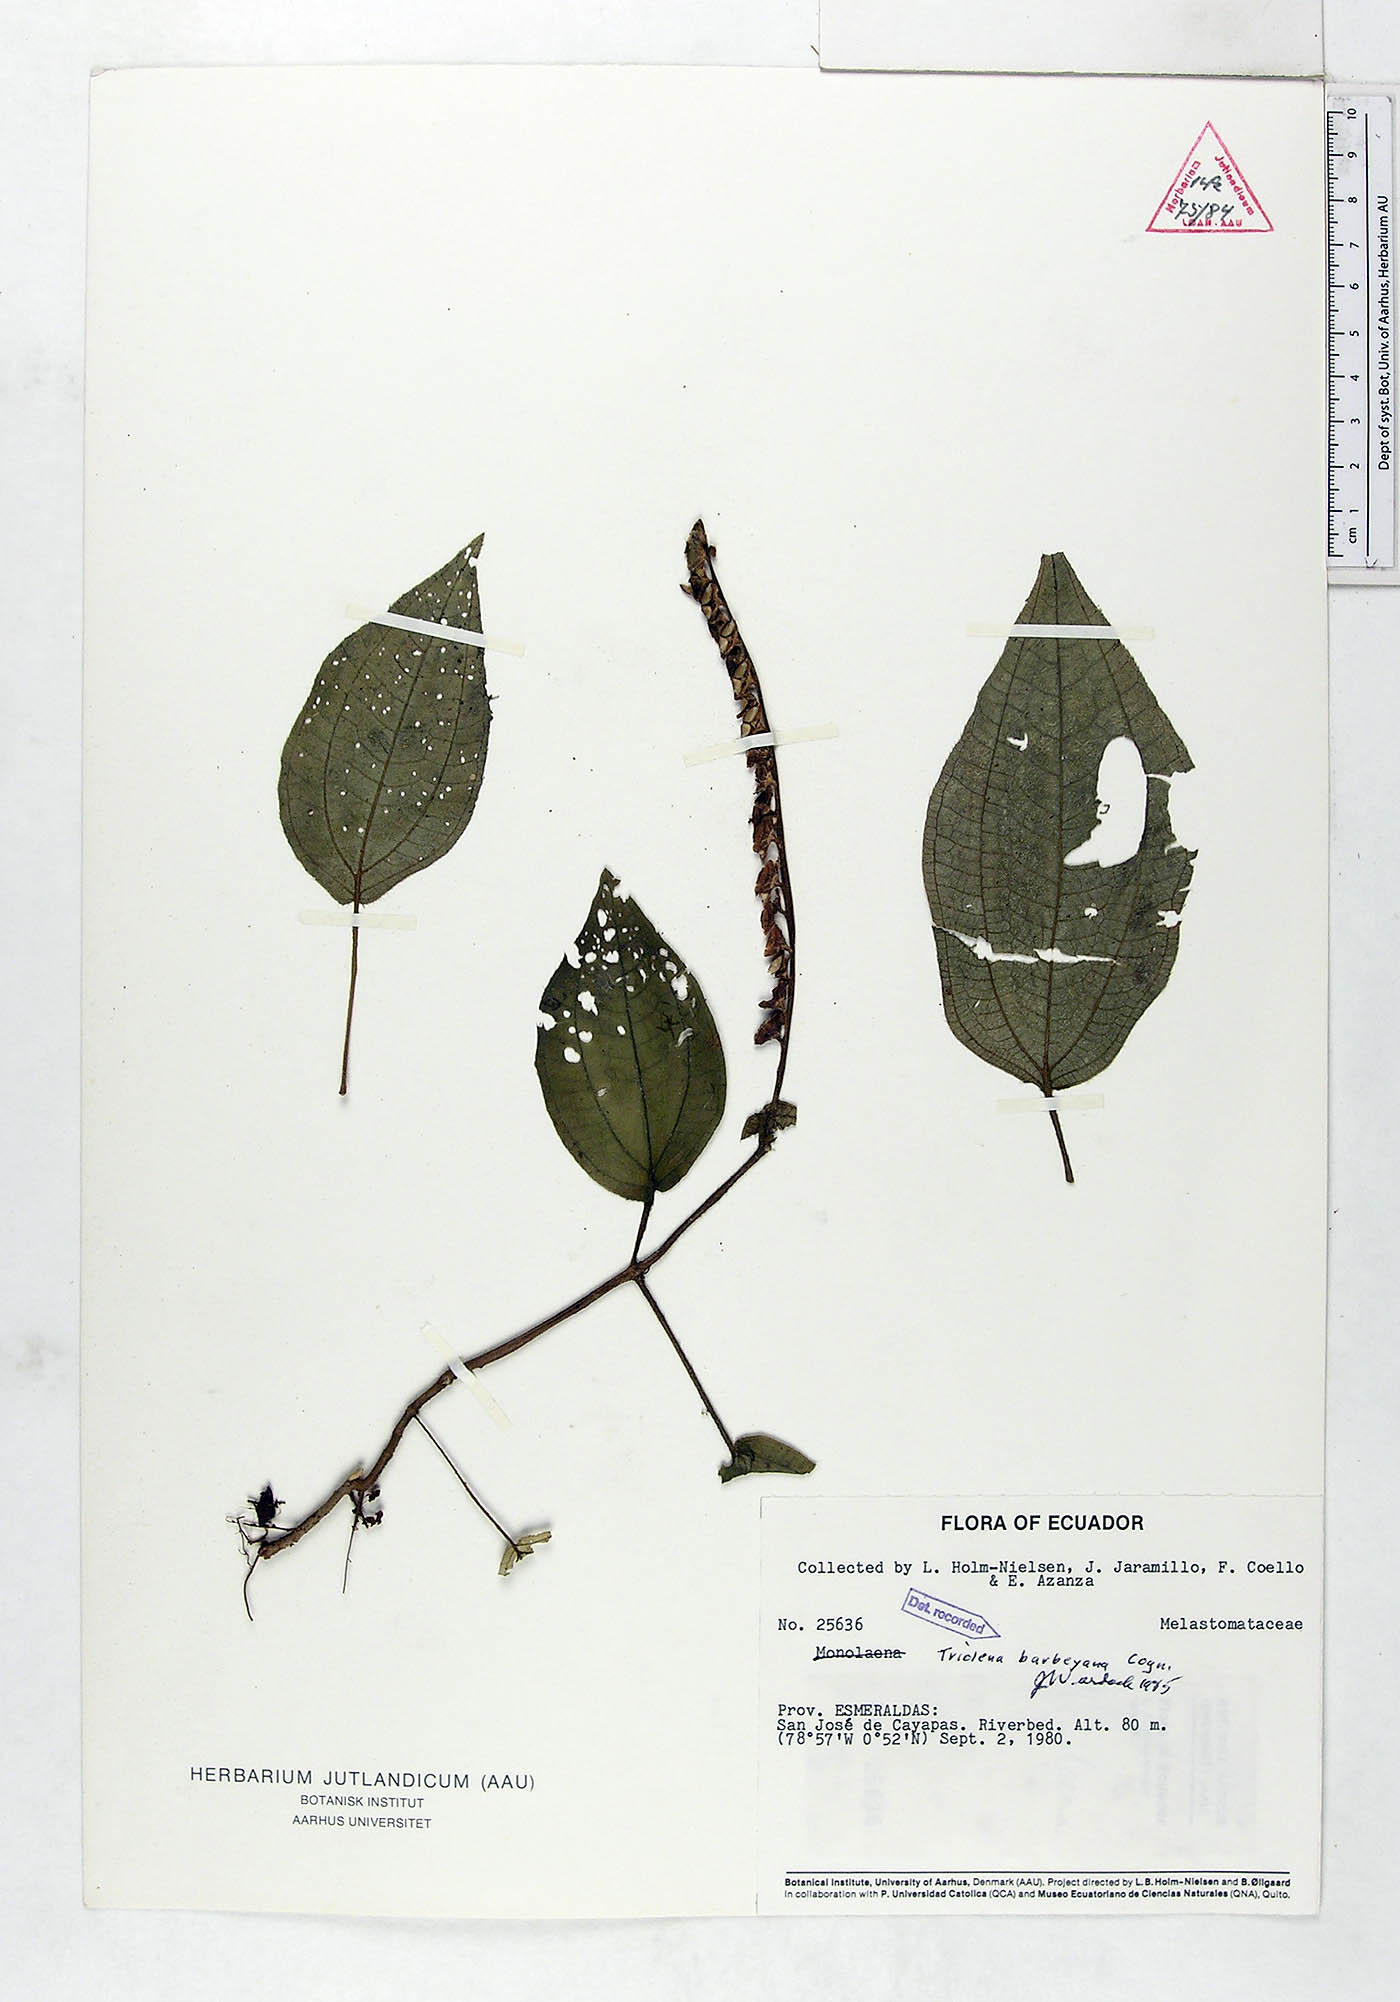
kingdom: Plantae
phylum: Tracheophyta
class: Magnoliopsida
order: Myrtales
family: Melastomataceae
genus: Triolena
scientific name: Triolena barbeyana
